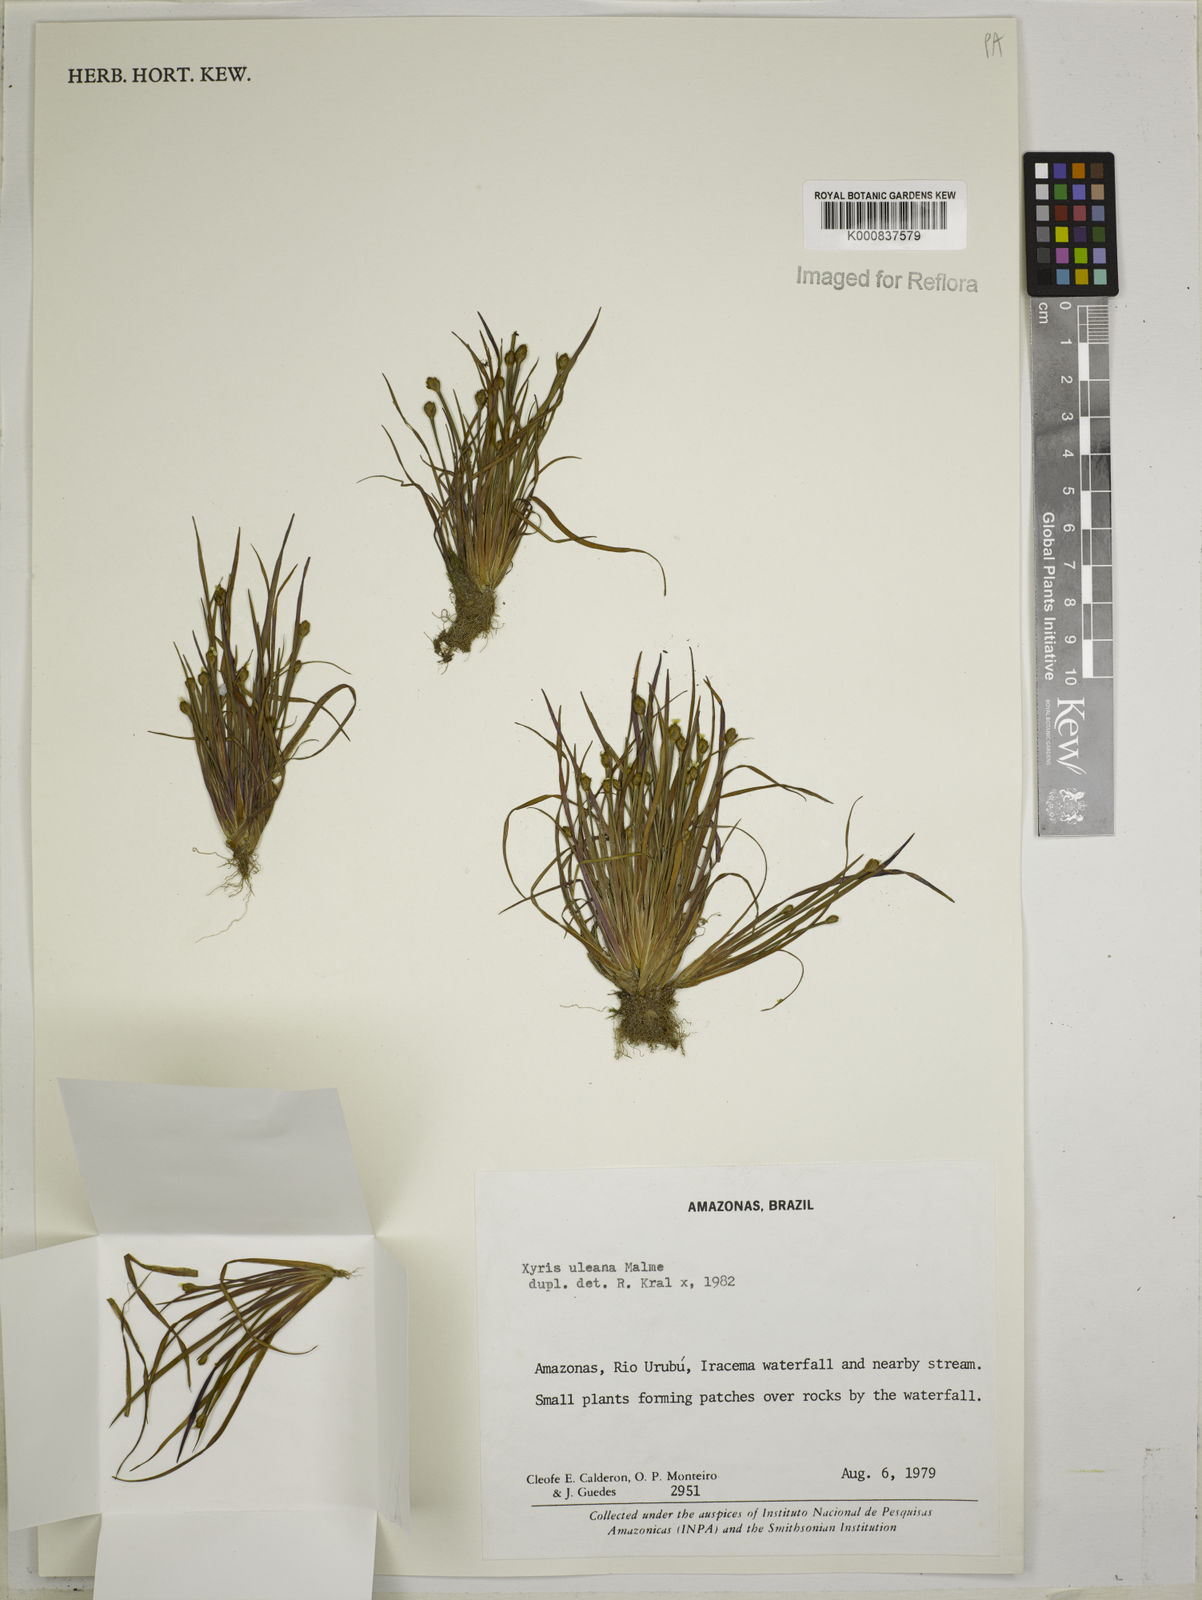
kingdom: Plantae
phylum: Tracheophyta
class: Liliopsida
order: Poales
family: Xyridaceae
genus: Xyris
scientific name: Xyris uleana
